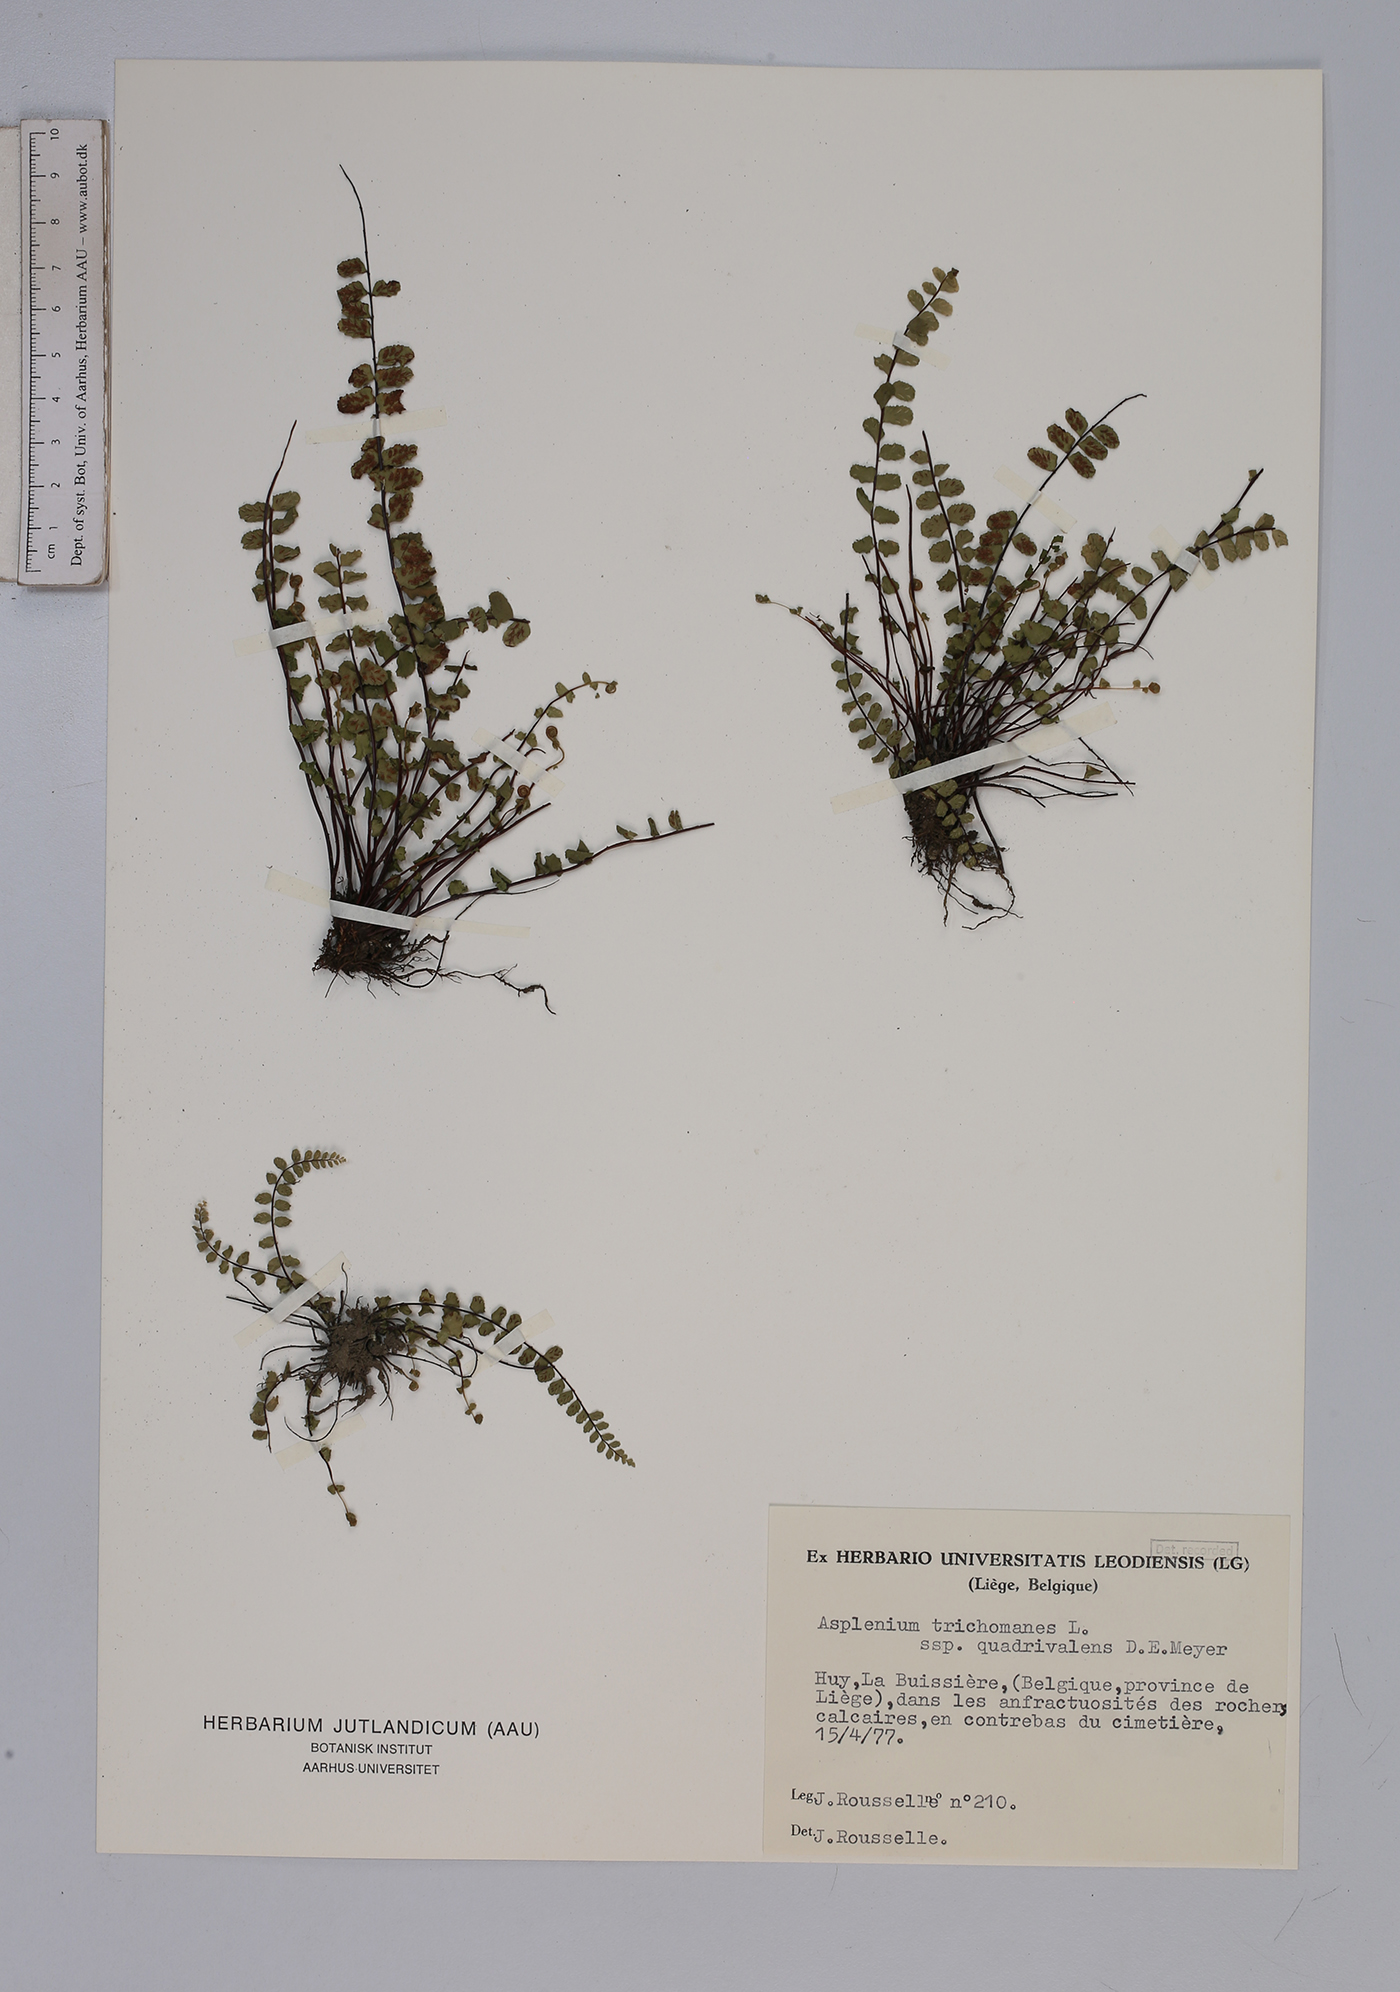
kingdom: Plantae
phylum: Tracheophyta
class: Polypodiopsida
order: Polypodiales
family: Aspleniaceae
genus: Asplenium
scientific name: Asplenium trichomanes
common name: Maidenhair spleenwort
